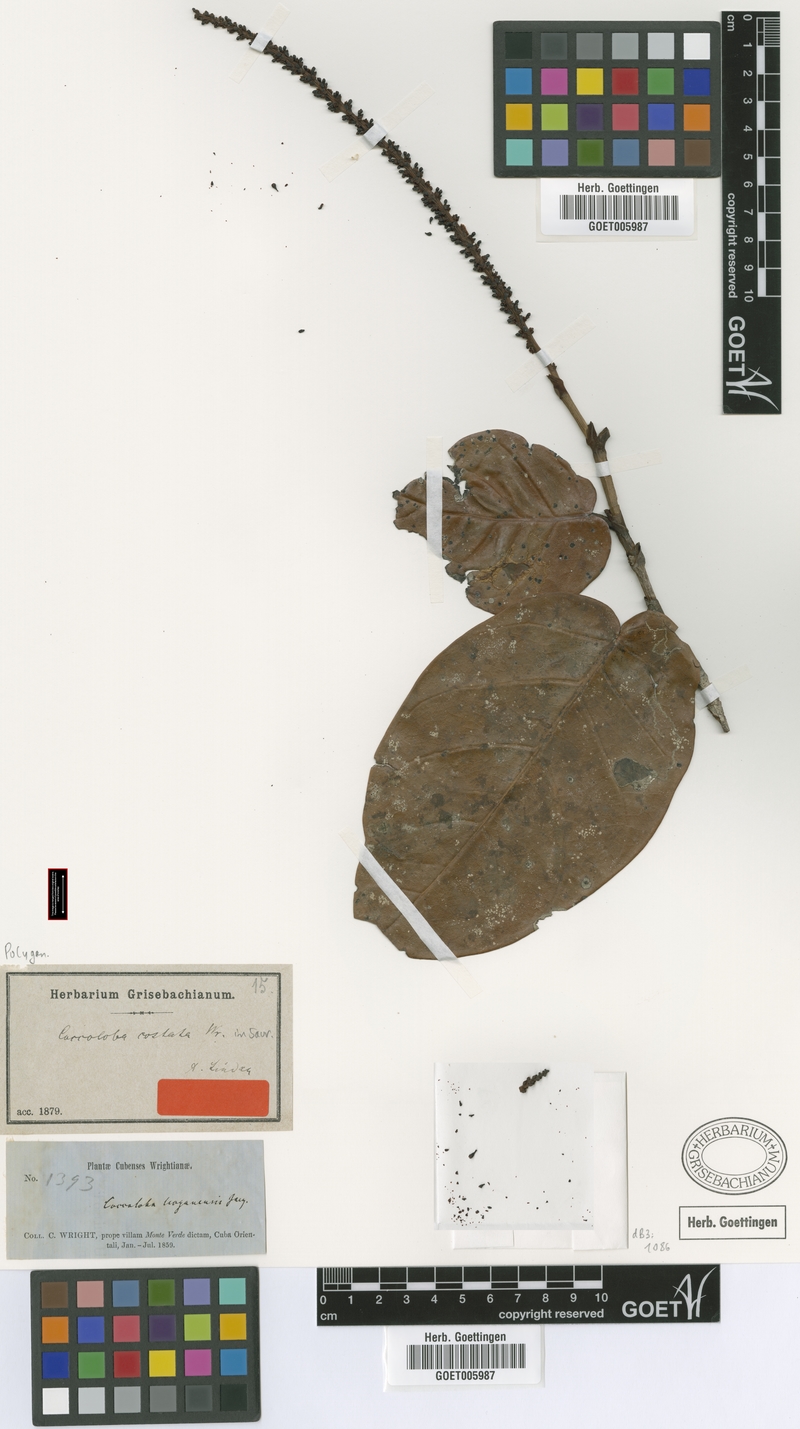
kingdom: Plantae
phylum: Tracheophyta
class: Magnoliopsida
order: Caryophyllales
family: Polygonaceae
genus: Coccoloba
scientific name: Coccoloba costata
